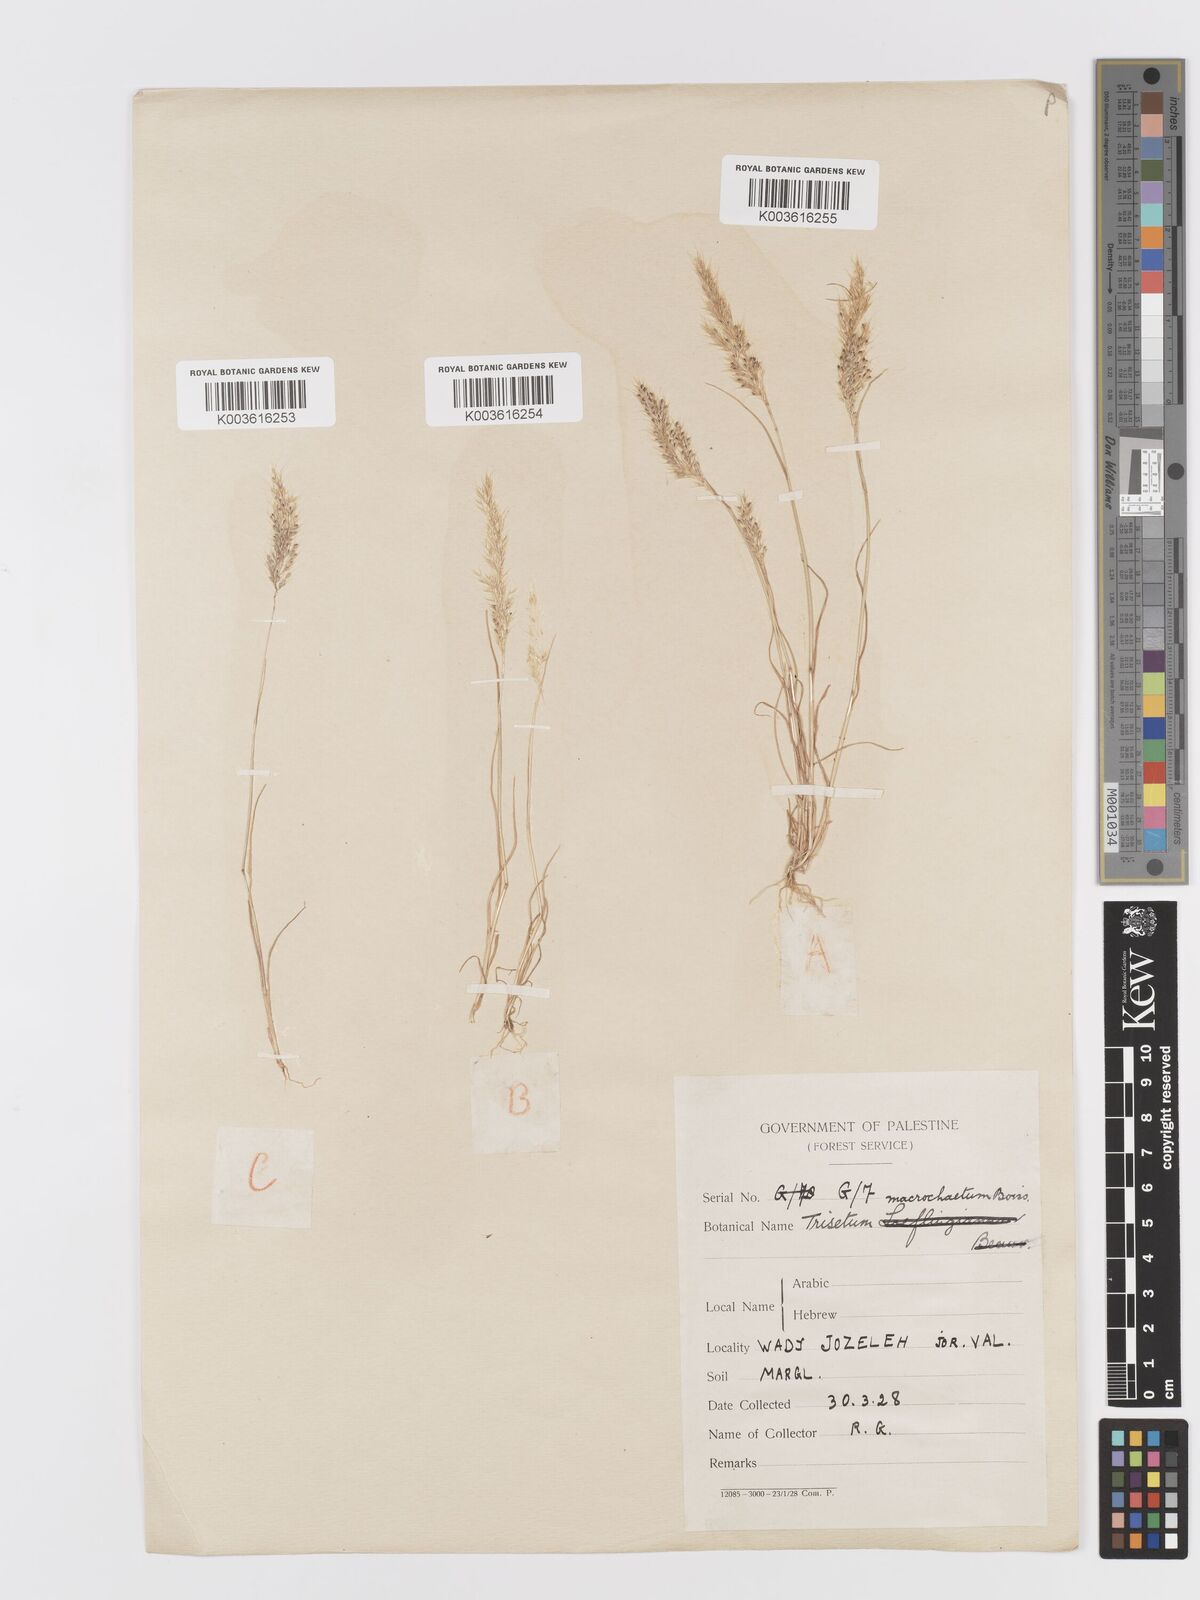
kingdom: Plantae
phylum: Tracheophyta
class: Liliopsida
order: Poales
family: Poaceae
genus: Trisetaria
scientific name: Trisetaria macrochaeta
